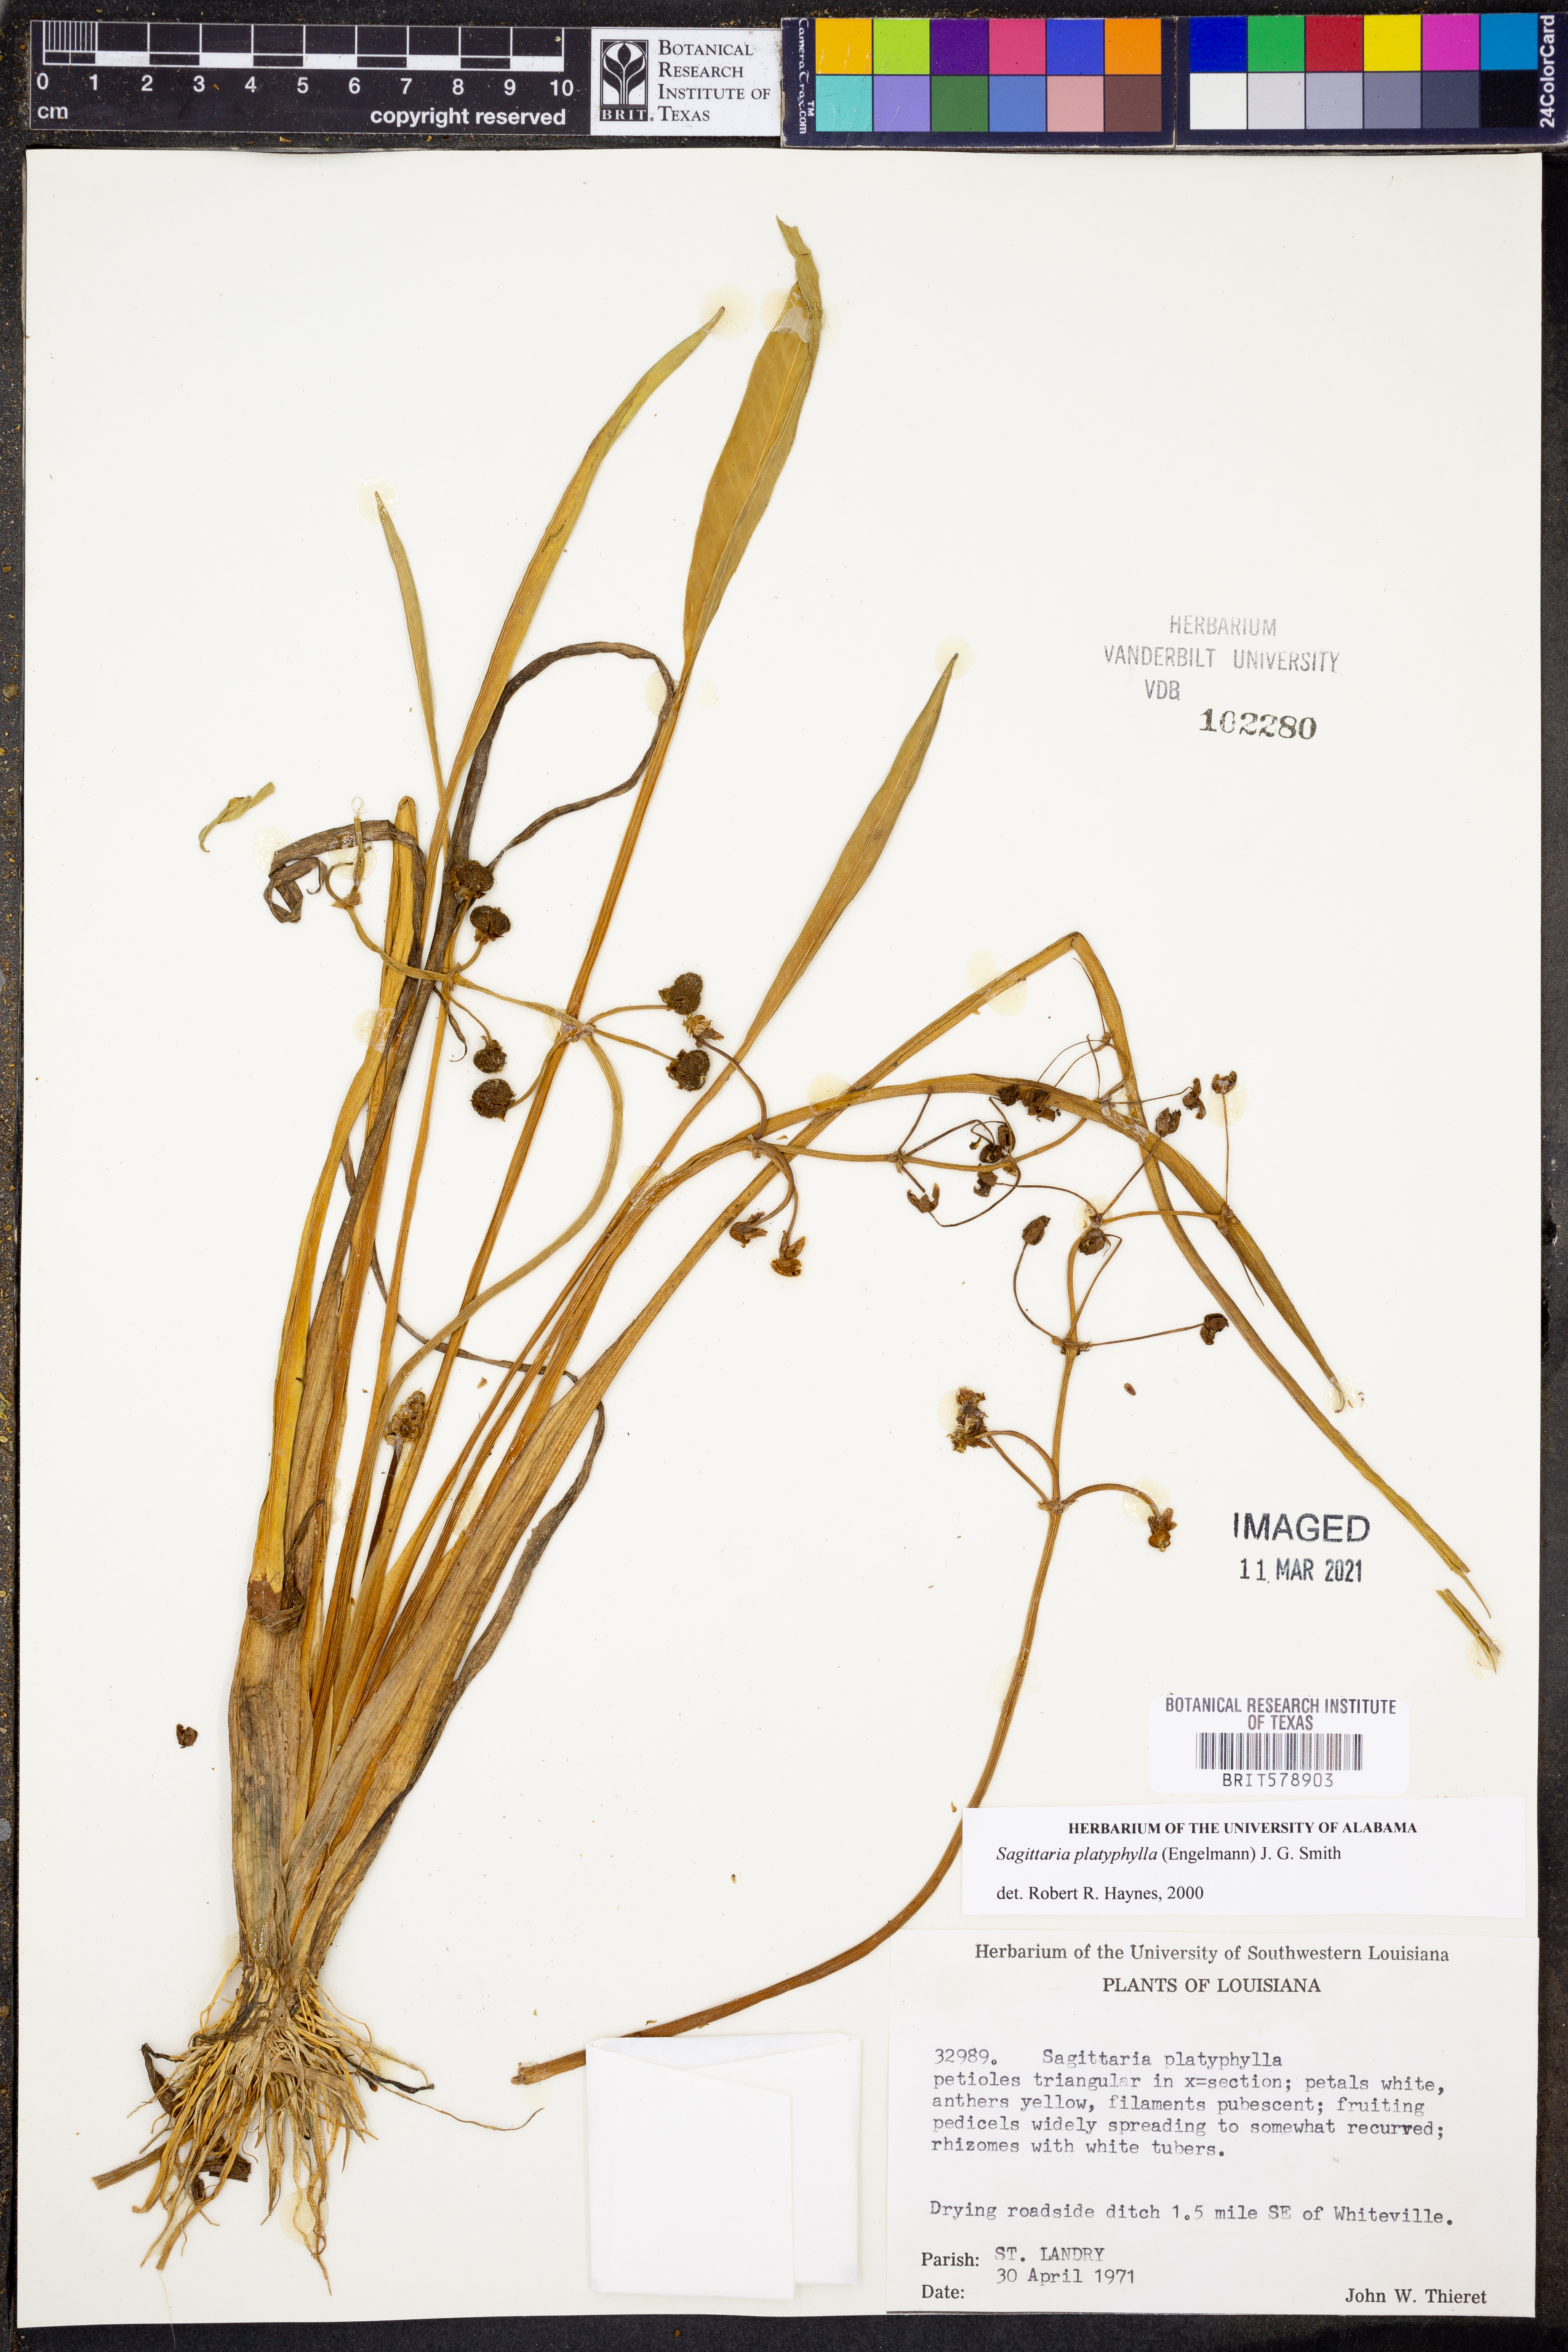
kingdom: Plantae
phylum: Tracheophyta
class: Liliopsida
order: Alismatales
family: Alismataceae
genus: Sagittaria
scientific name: Sagittaria platyphylla
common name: Broad-leaf arrowhead
